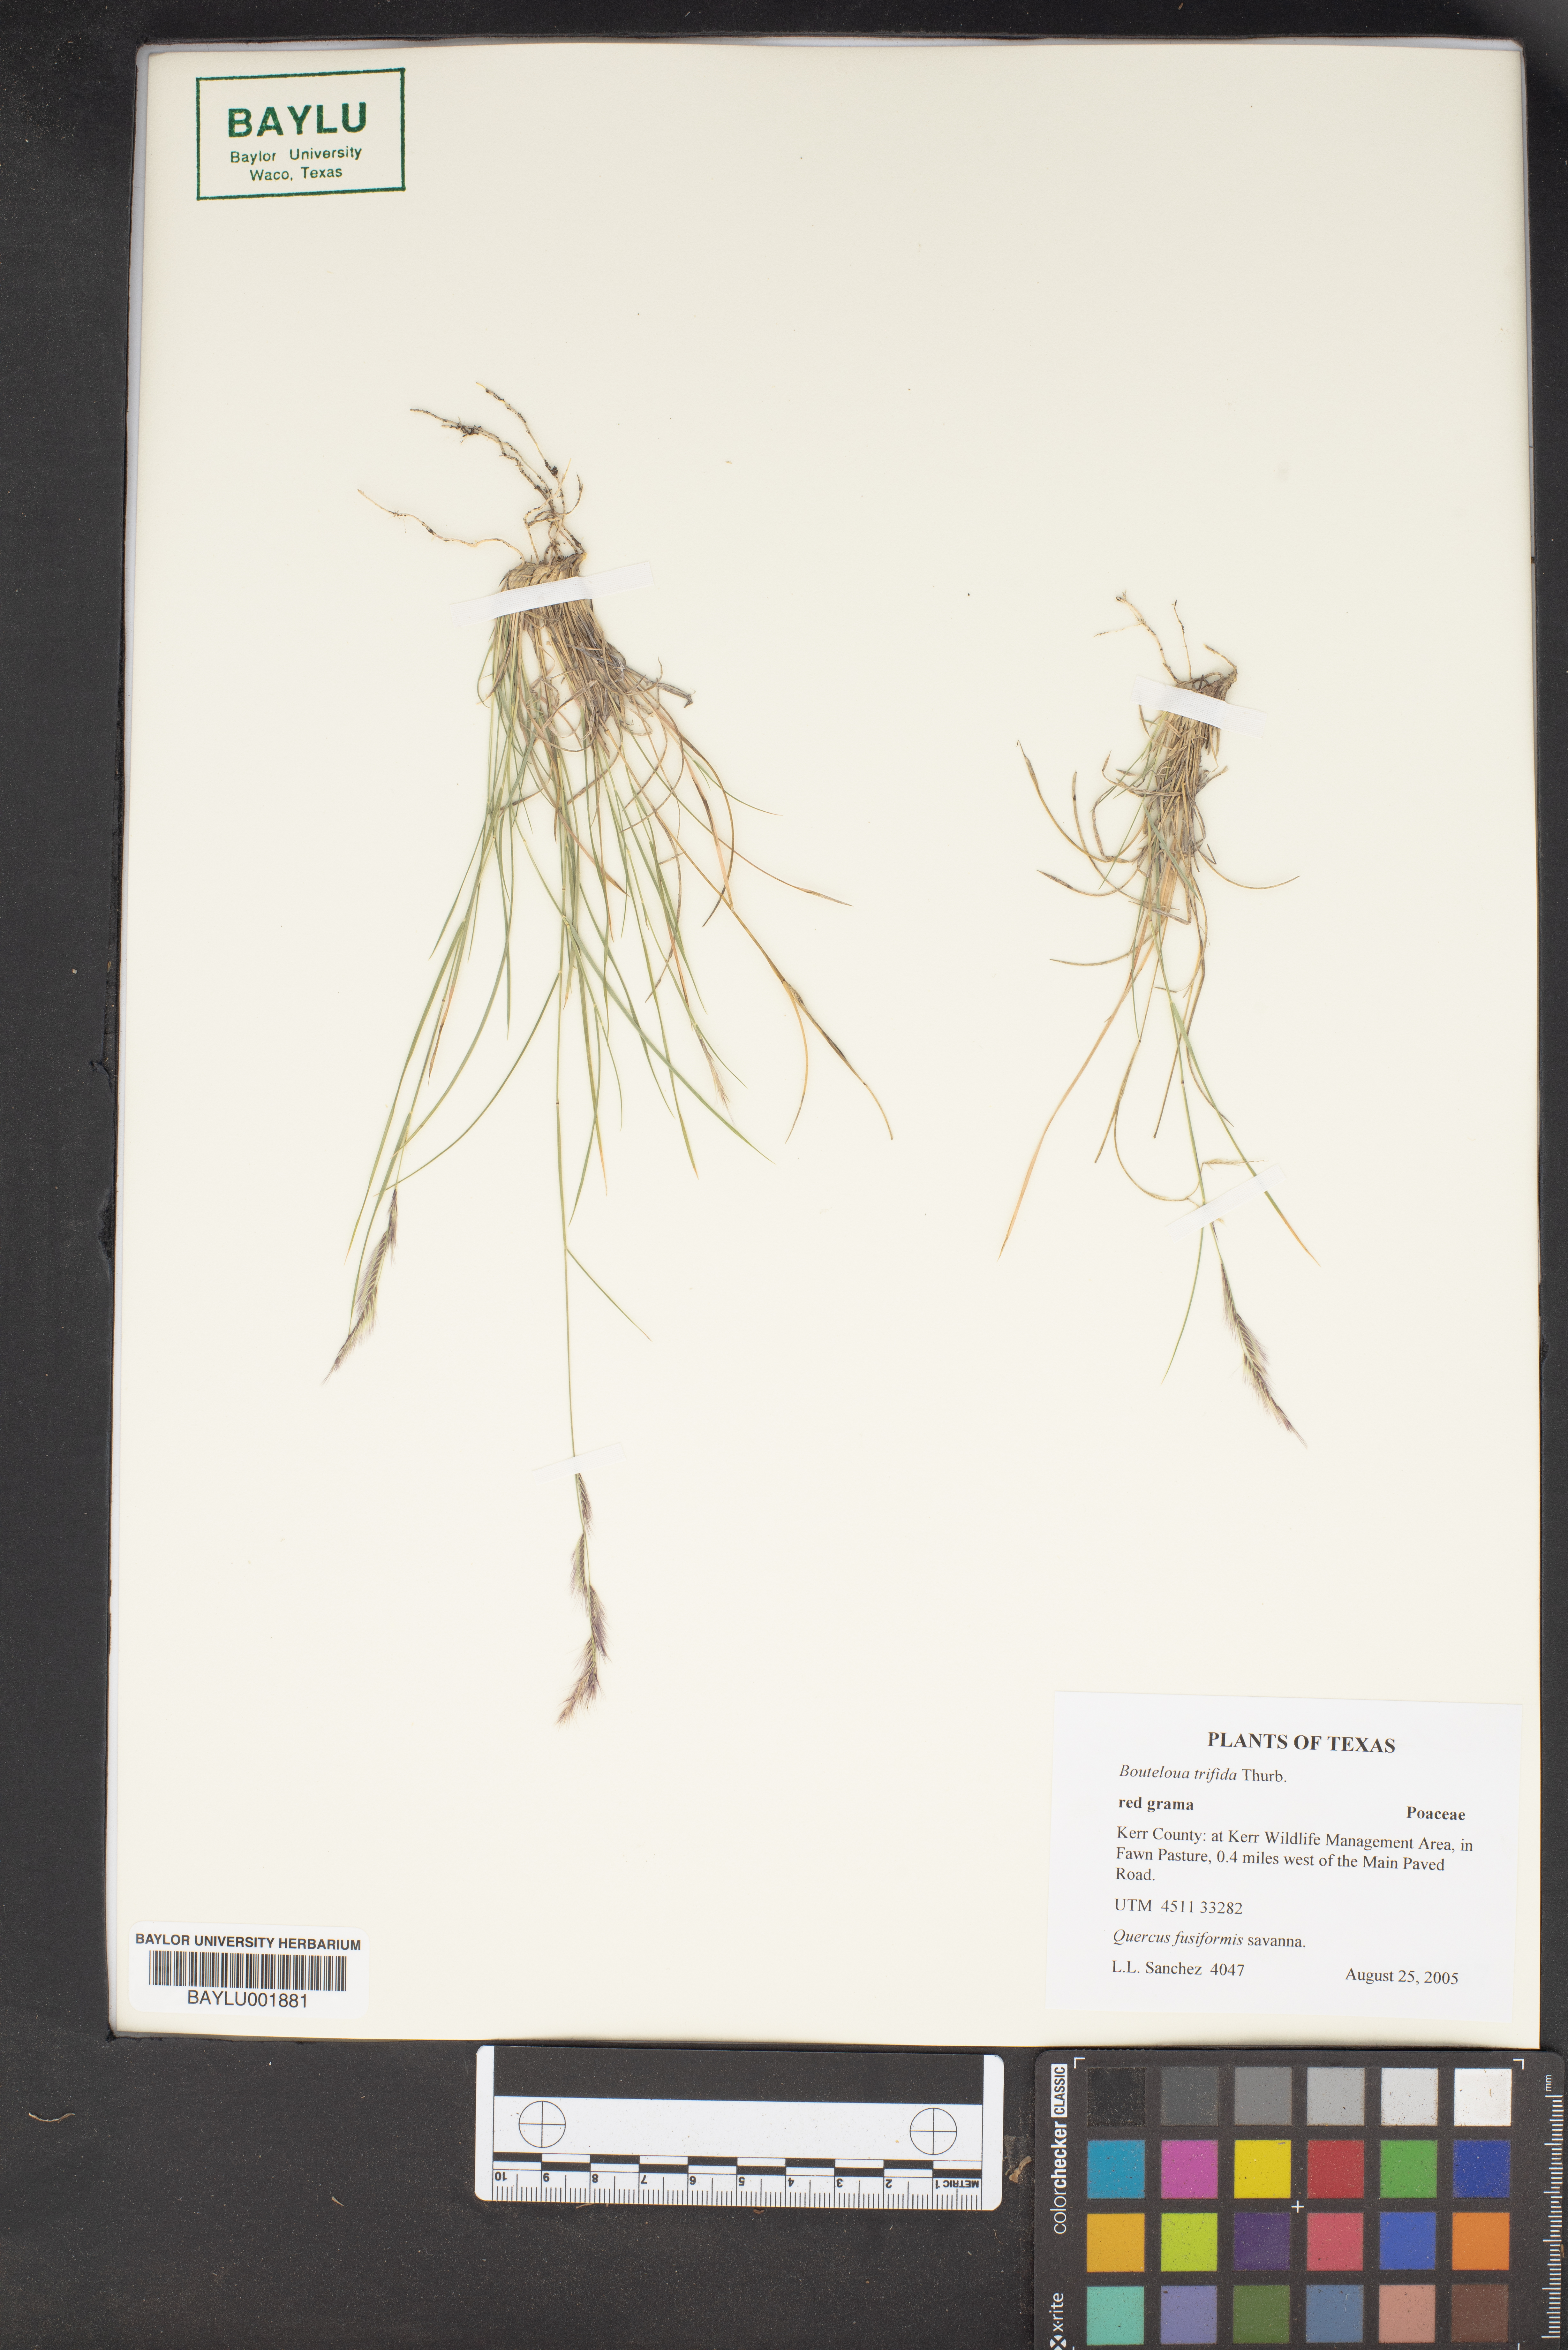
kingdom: Plantae
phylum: Tracheophyta
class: Liliopsida
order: Poales
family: Poaceae
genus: Bouteloua
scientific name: Bouteloua trifida
